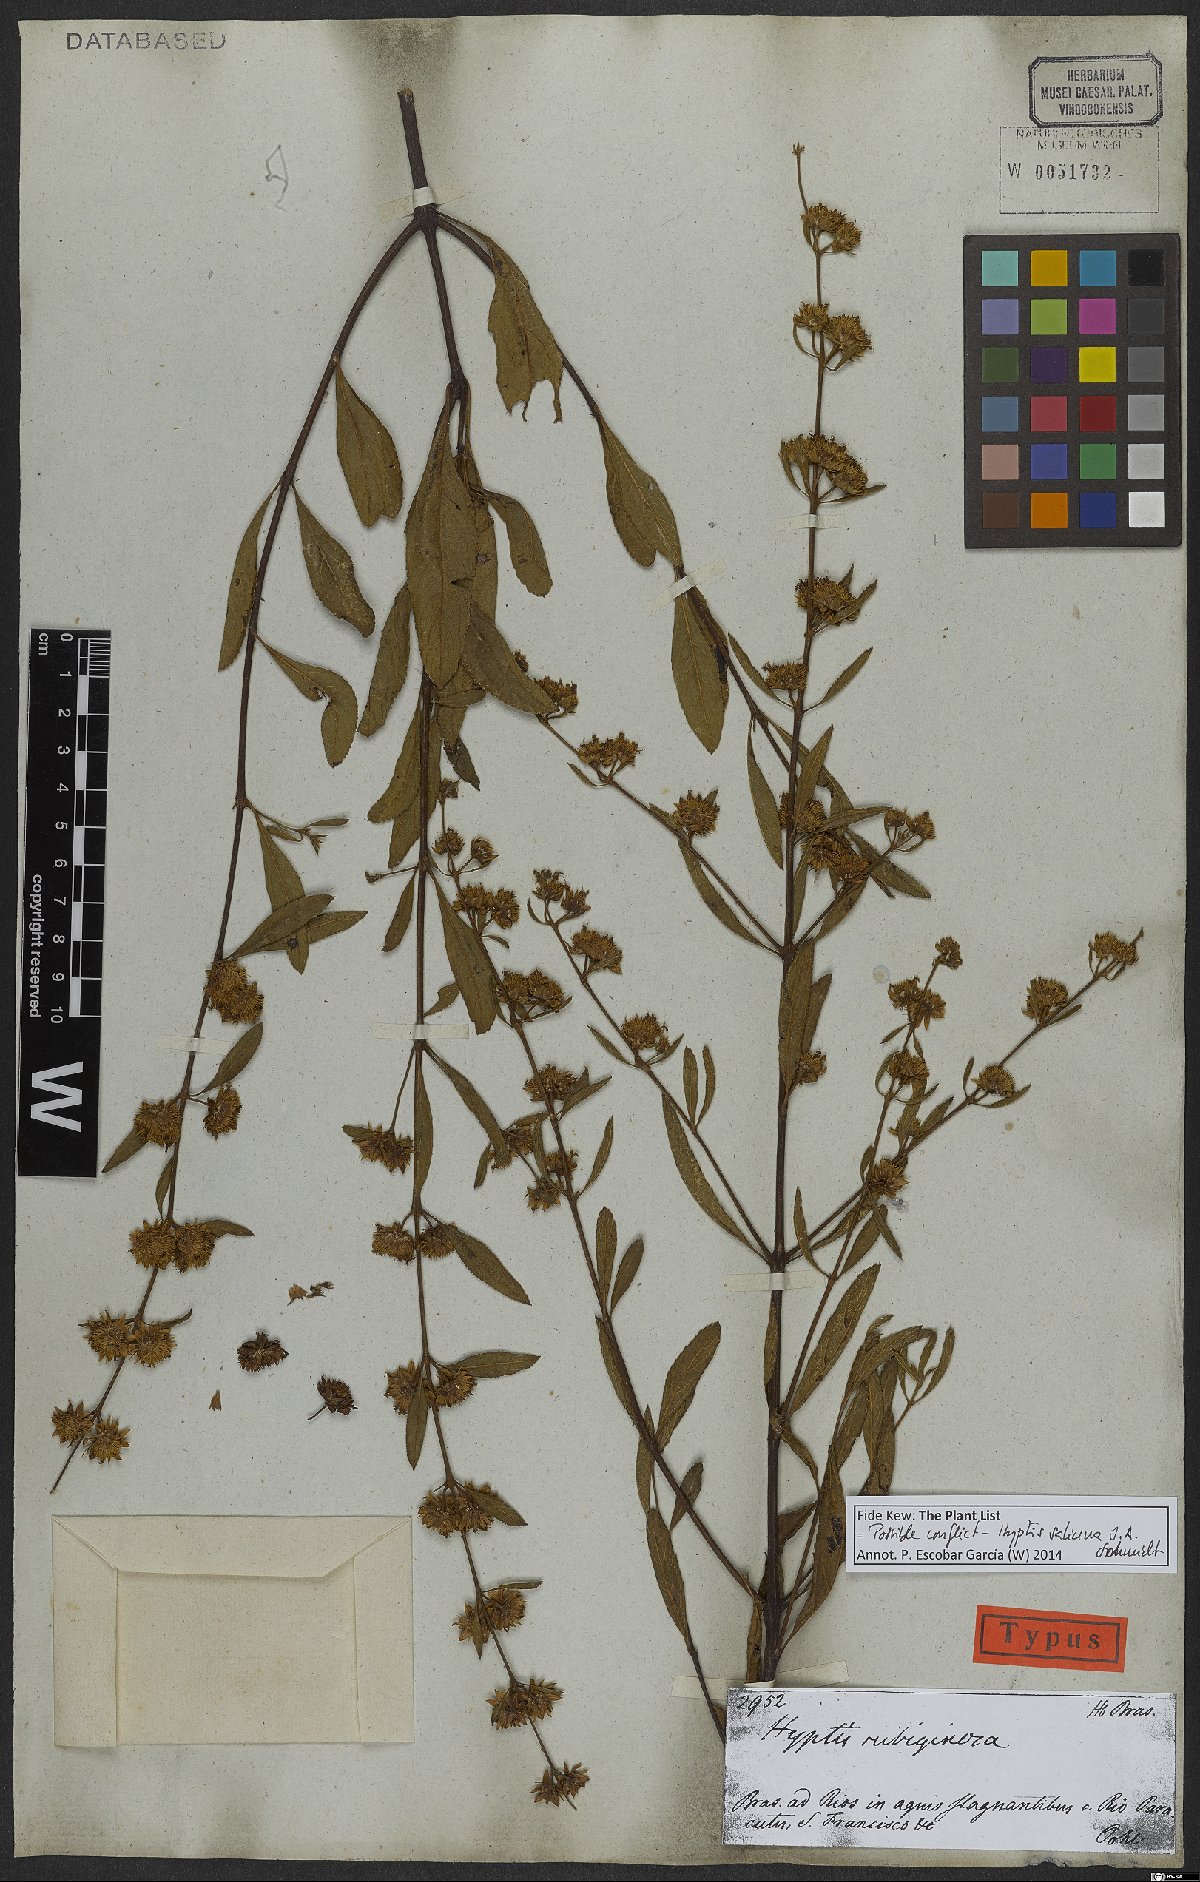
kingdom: Plantae
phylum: Tracheophyta
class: Magnoliopsida
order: Lamiales
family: Lamiaceae
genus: Hyptis
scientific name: Hyptis salicina
